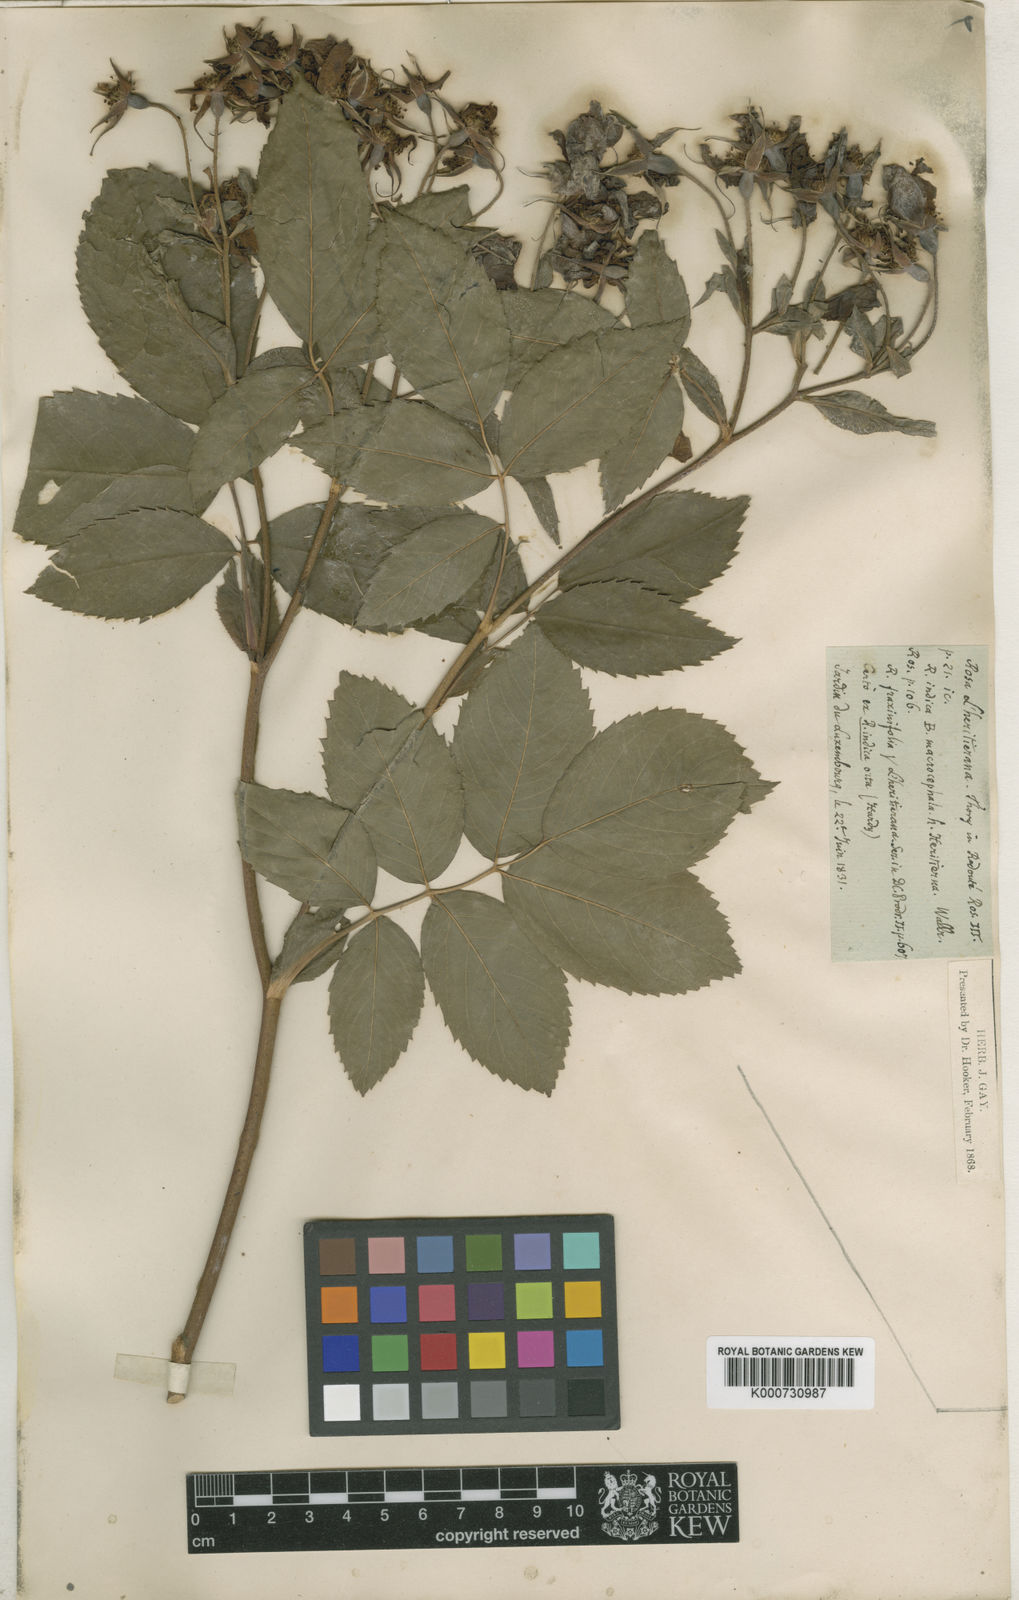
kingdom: Plantae
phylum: Tracheophyta
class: Magnoliopsida
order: Rosales
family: Rosaceae
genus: Rosa
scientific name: Rosa blanda
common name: Smooth rose
